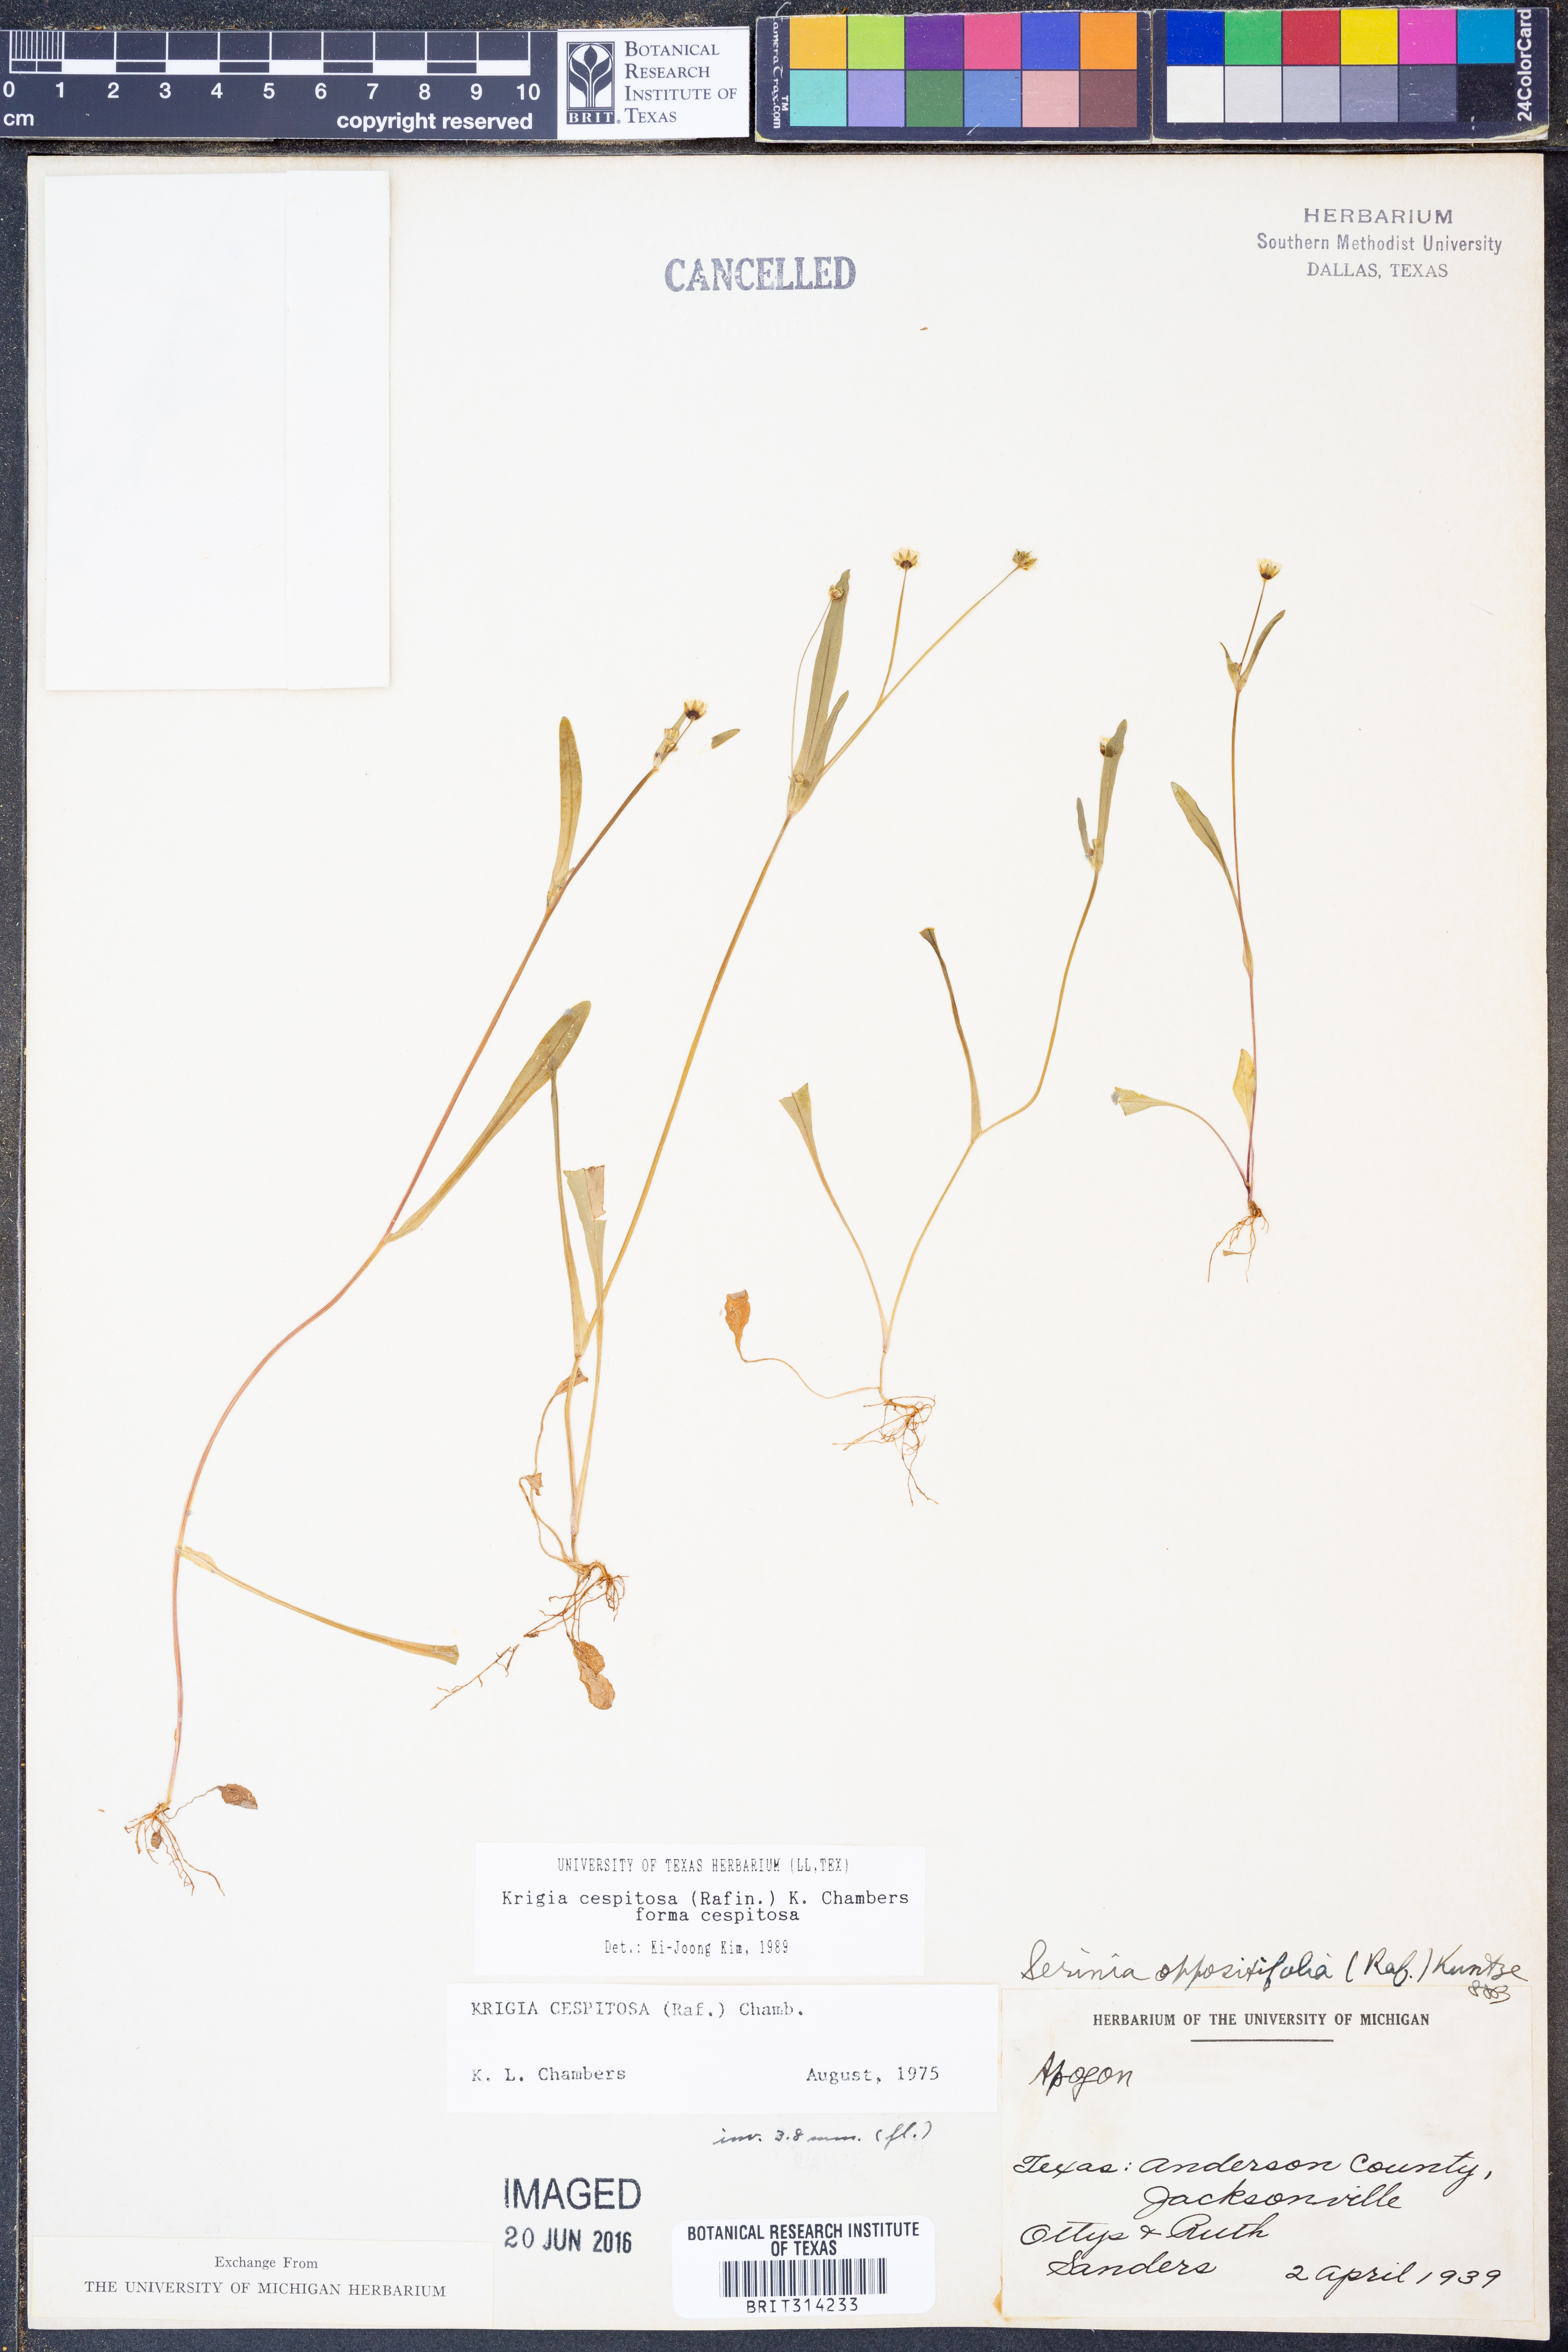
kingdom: Plantae
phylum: Tracheophyta
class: Magnoliopsida
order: Asterales
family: Asteraceae
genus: Krigia
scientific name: Krigia cespitosa
